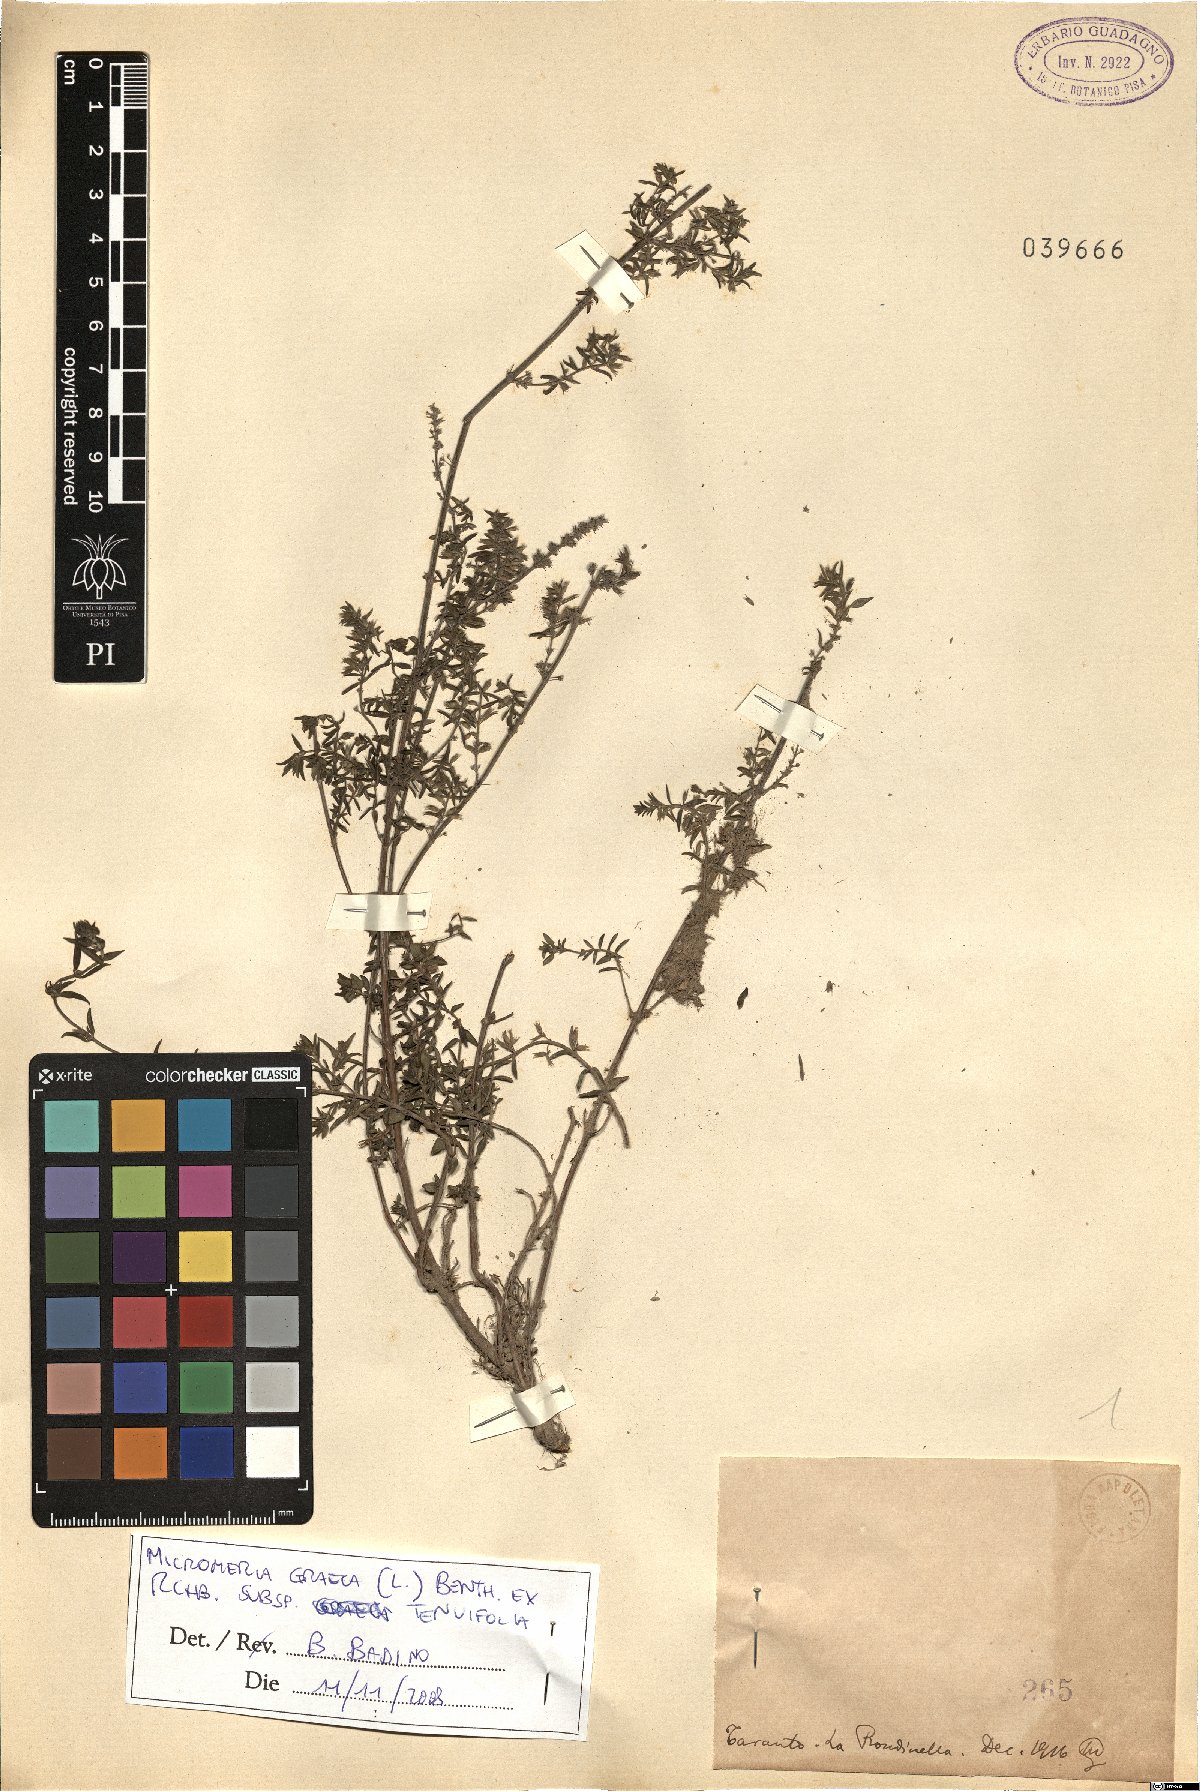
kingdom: Plantae
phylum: Tracheophyta
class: Magnoliopsida
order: Lamiales
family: Lamiaceae
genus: Micromeria
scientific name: Micromeria graeca
